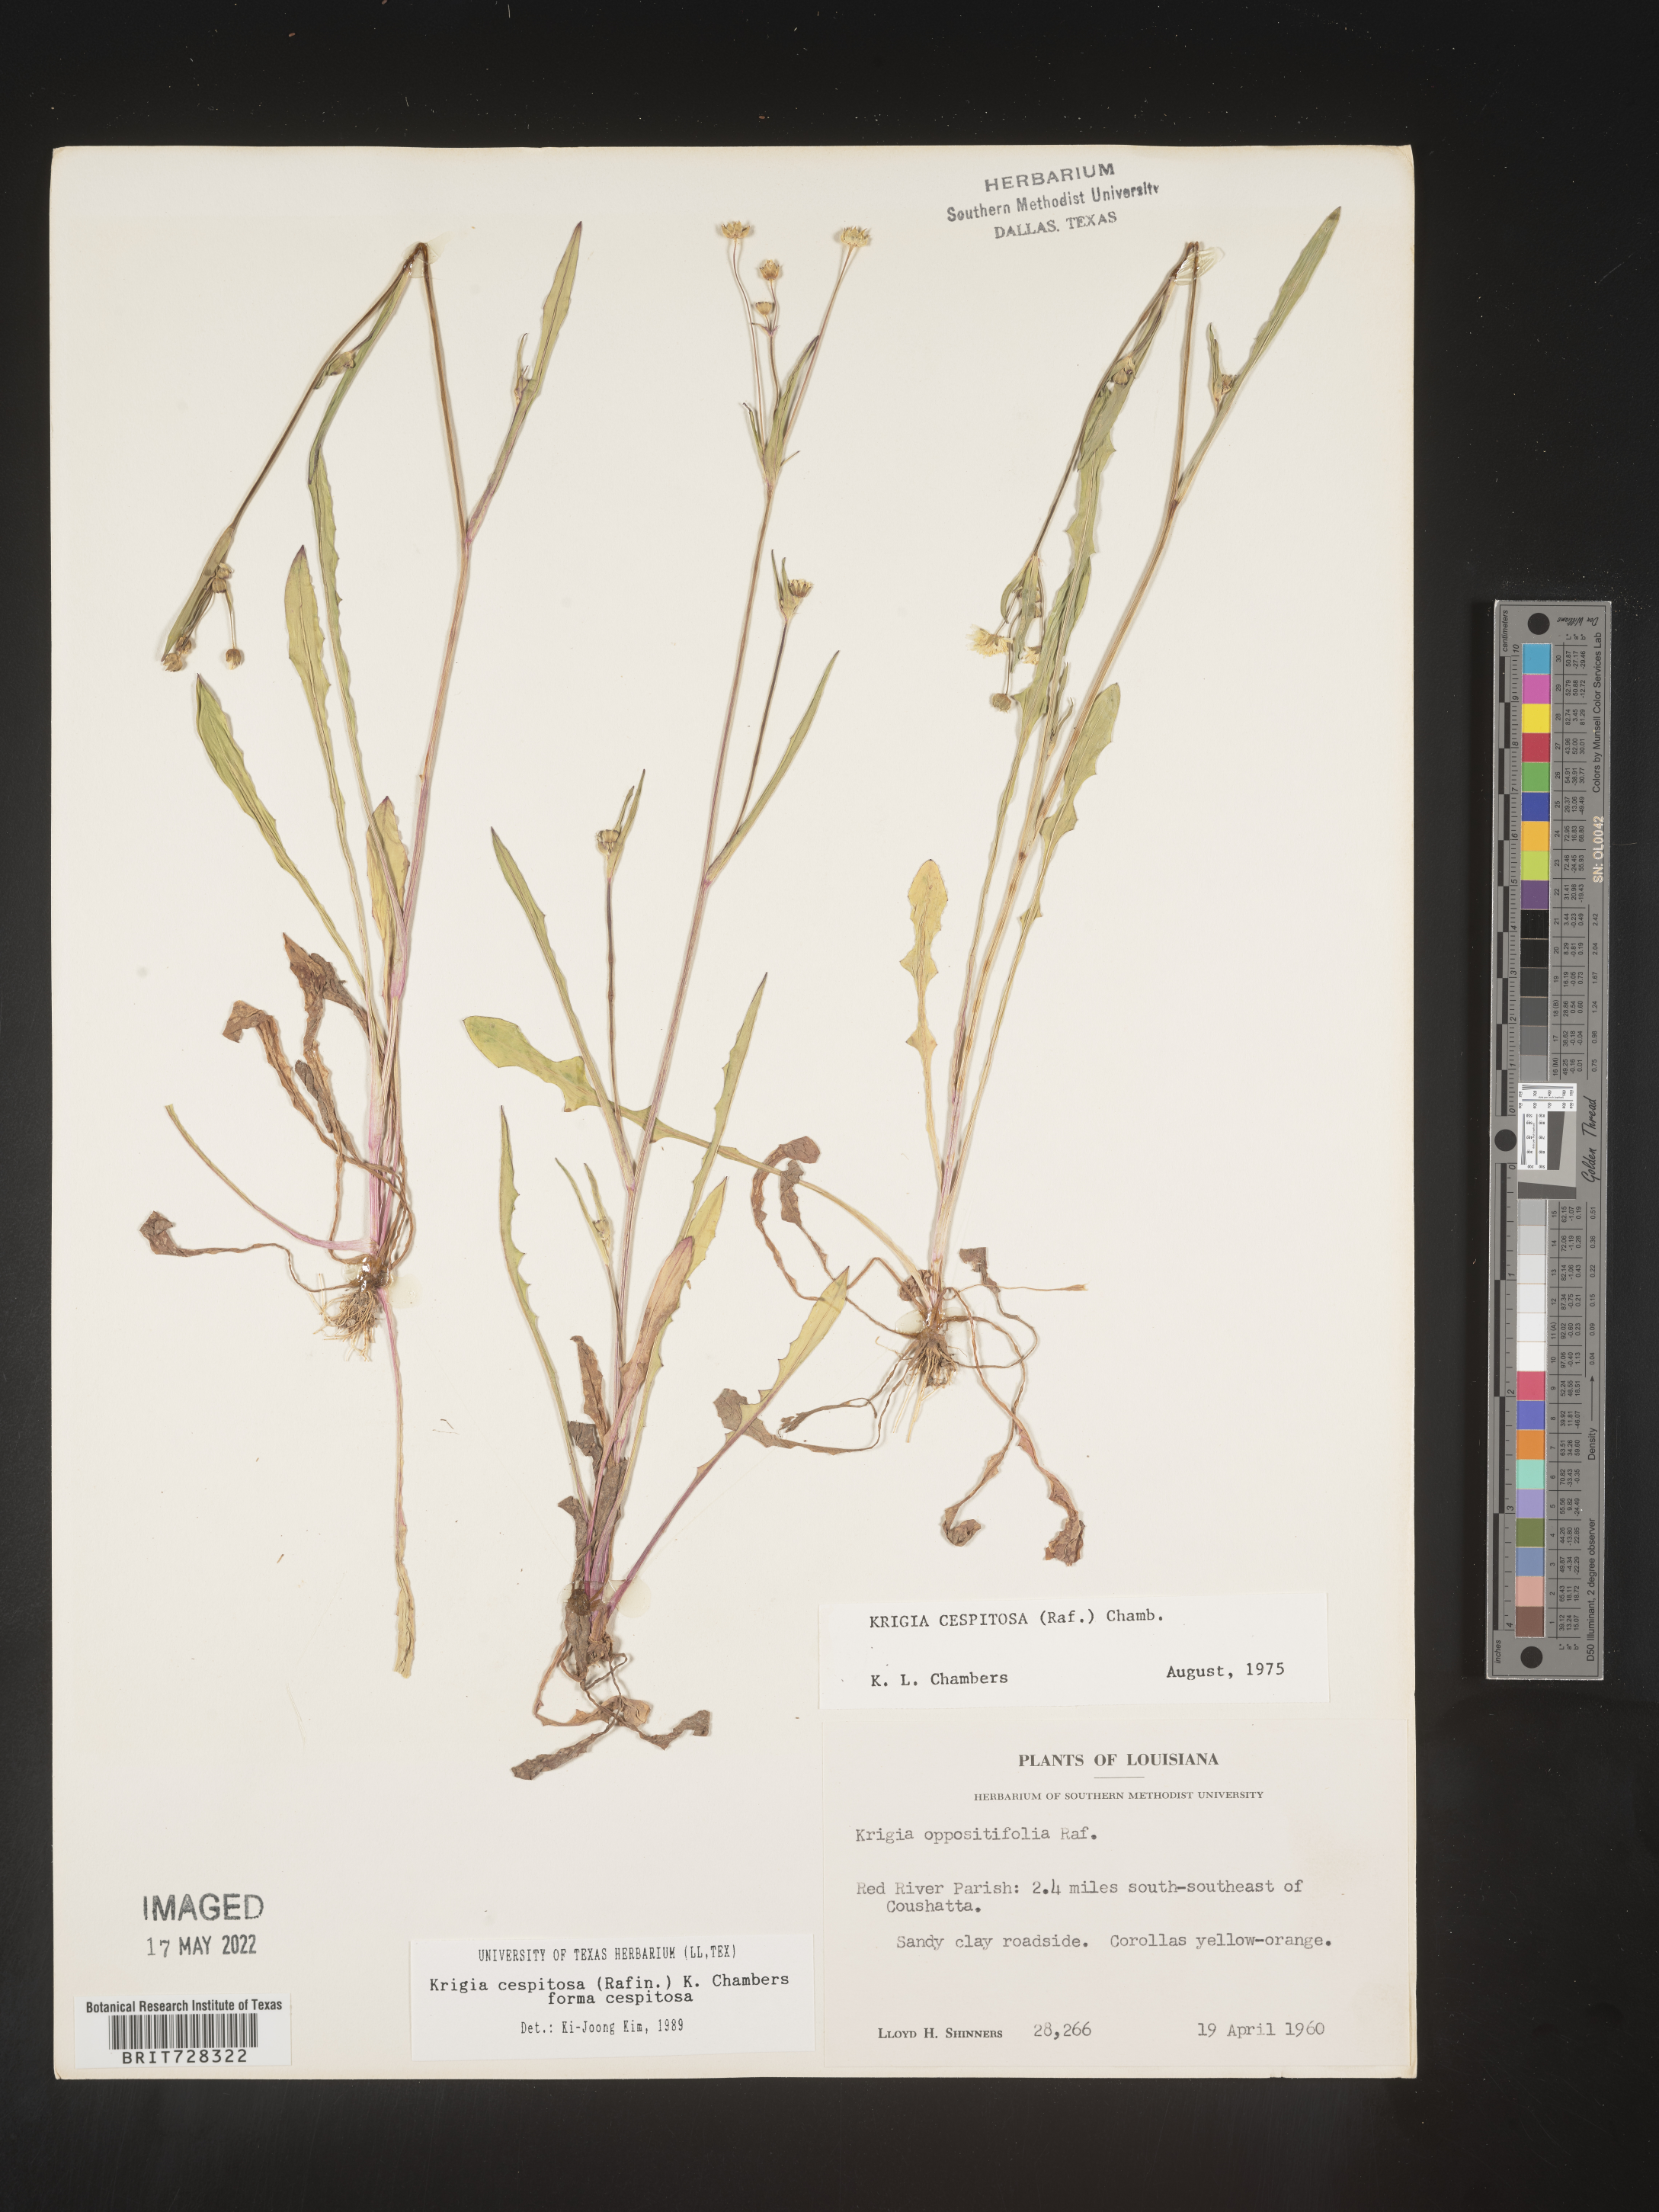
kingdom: Plantae
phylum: Tracheophyta
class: Magnoliopsida
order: Asterales
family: Asteraceae
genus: Krigia
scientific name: Krigia caespitosa
